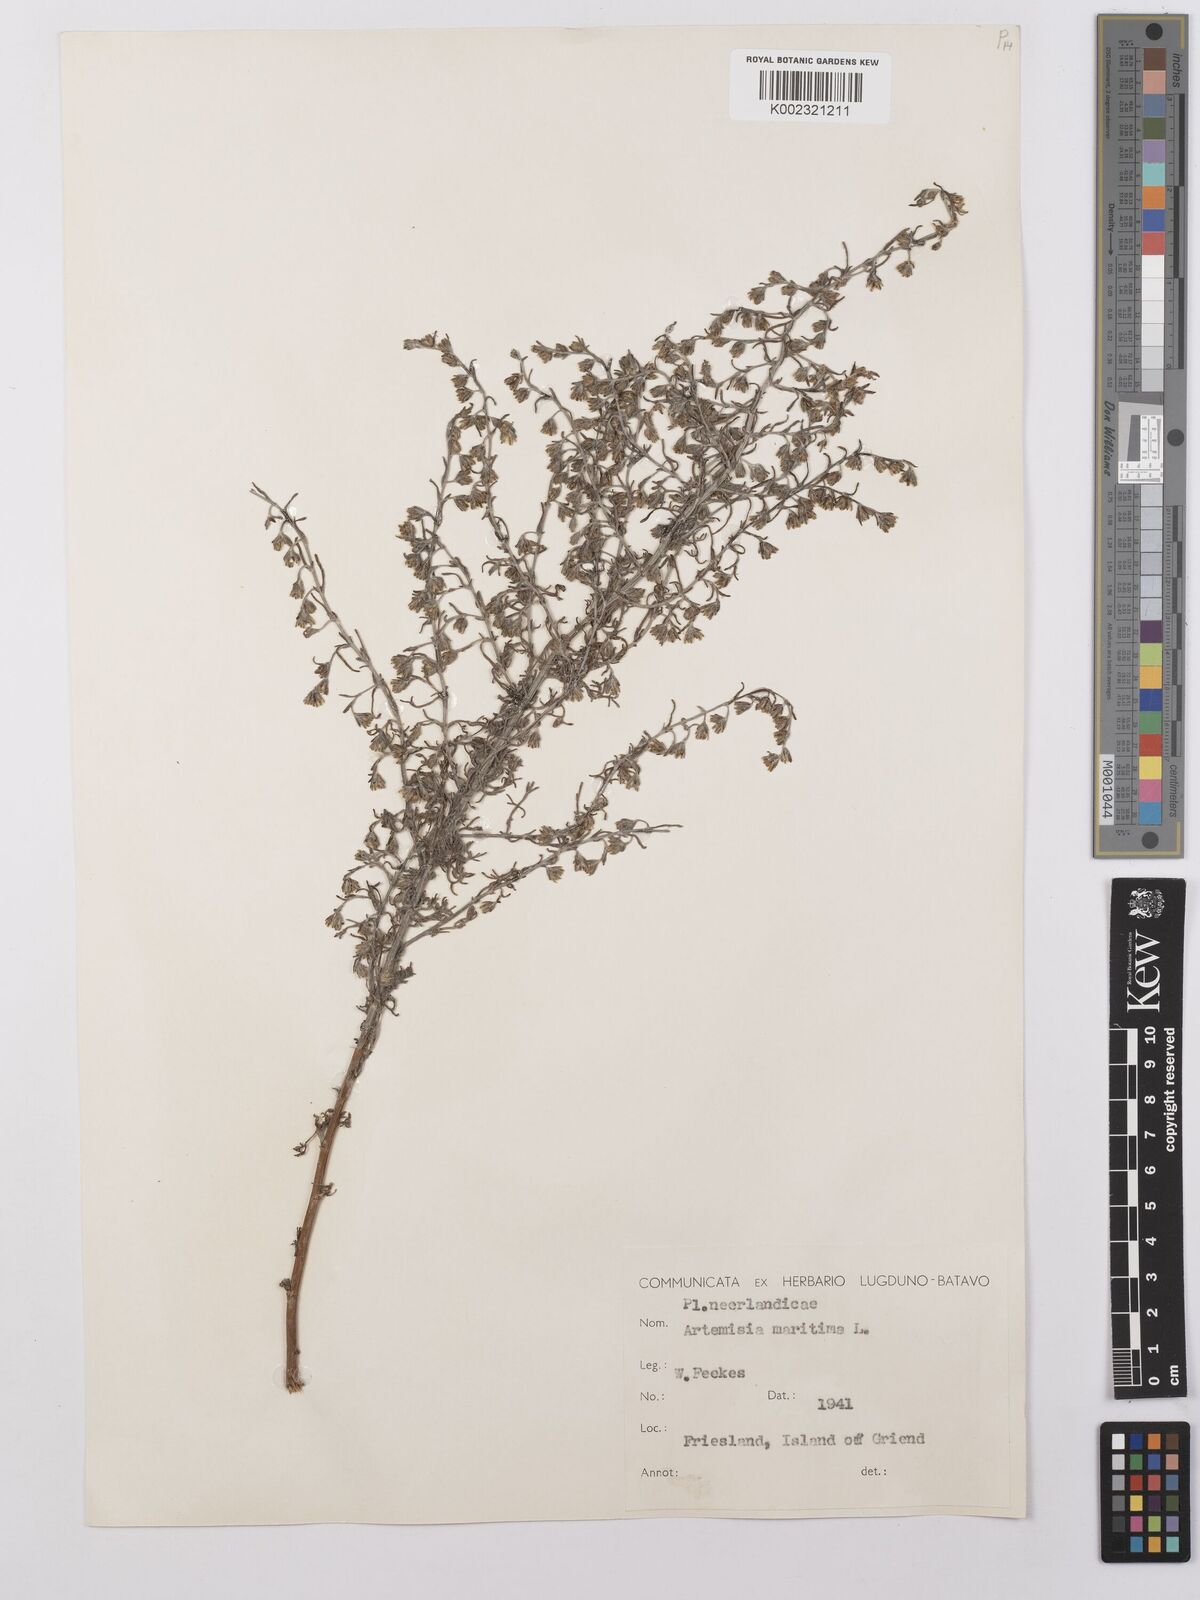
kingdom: Plantae
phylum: Tracheophyta
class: Magnoliopsida
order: Asterales
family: Asteraceae
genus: Artemisia
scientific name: Artemisia maritima
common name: Wormseed
